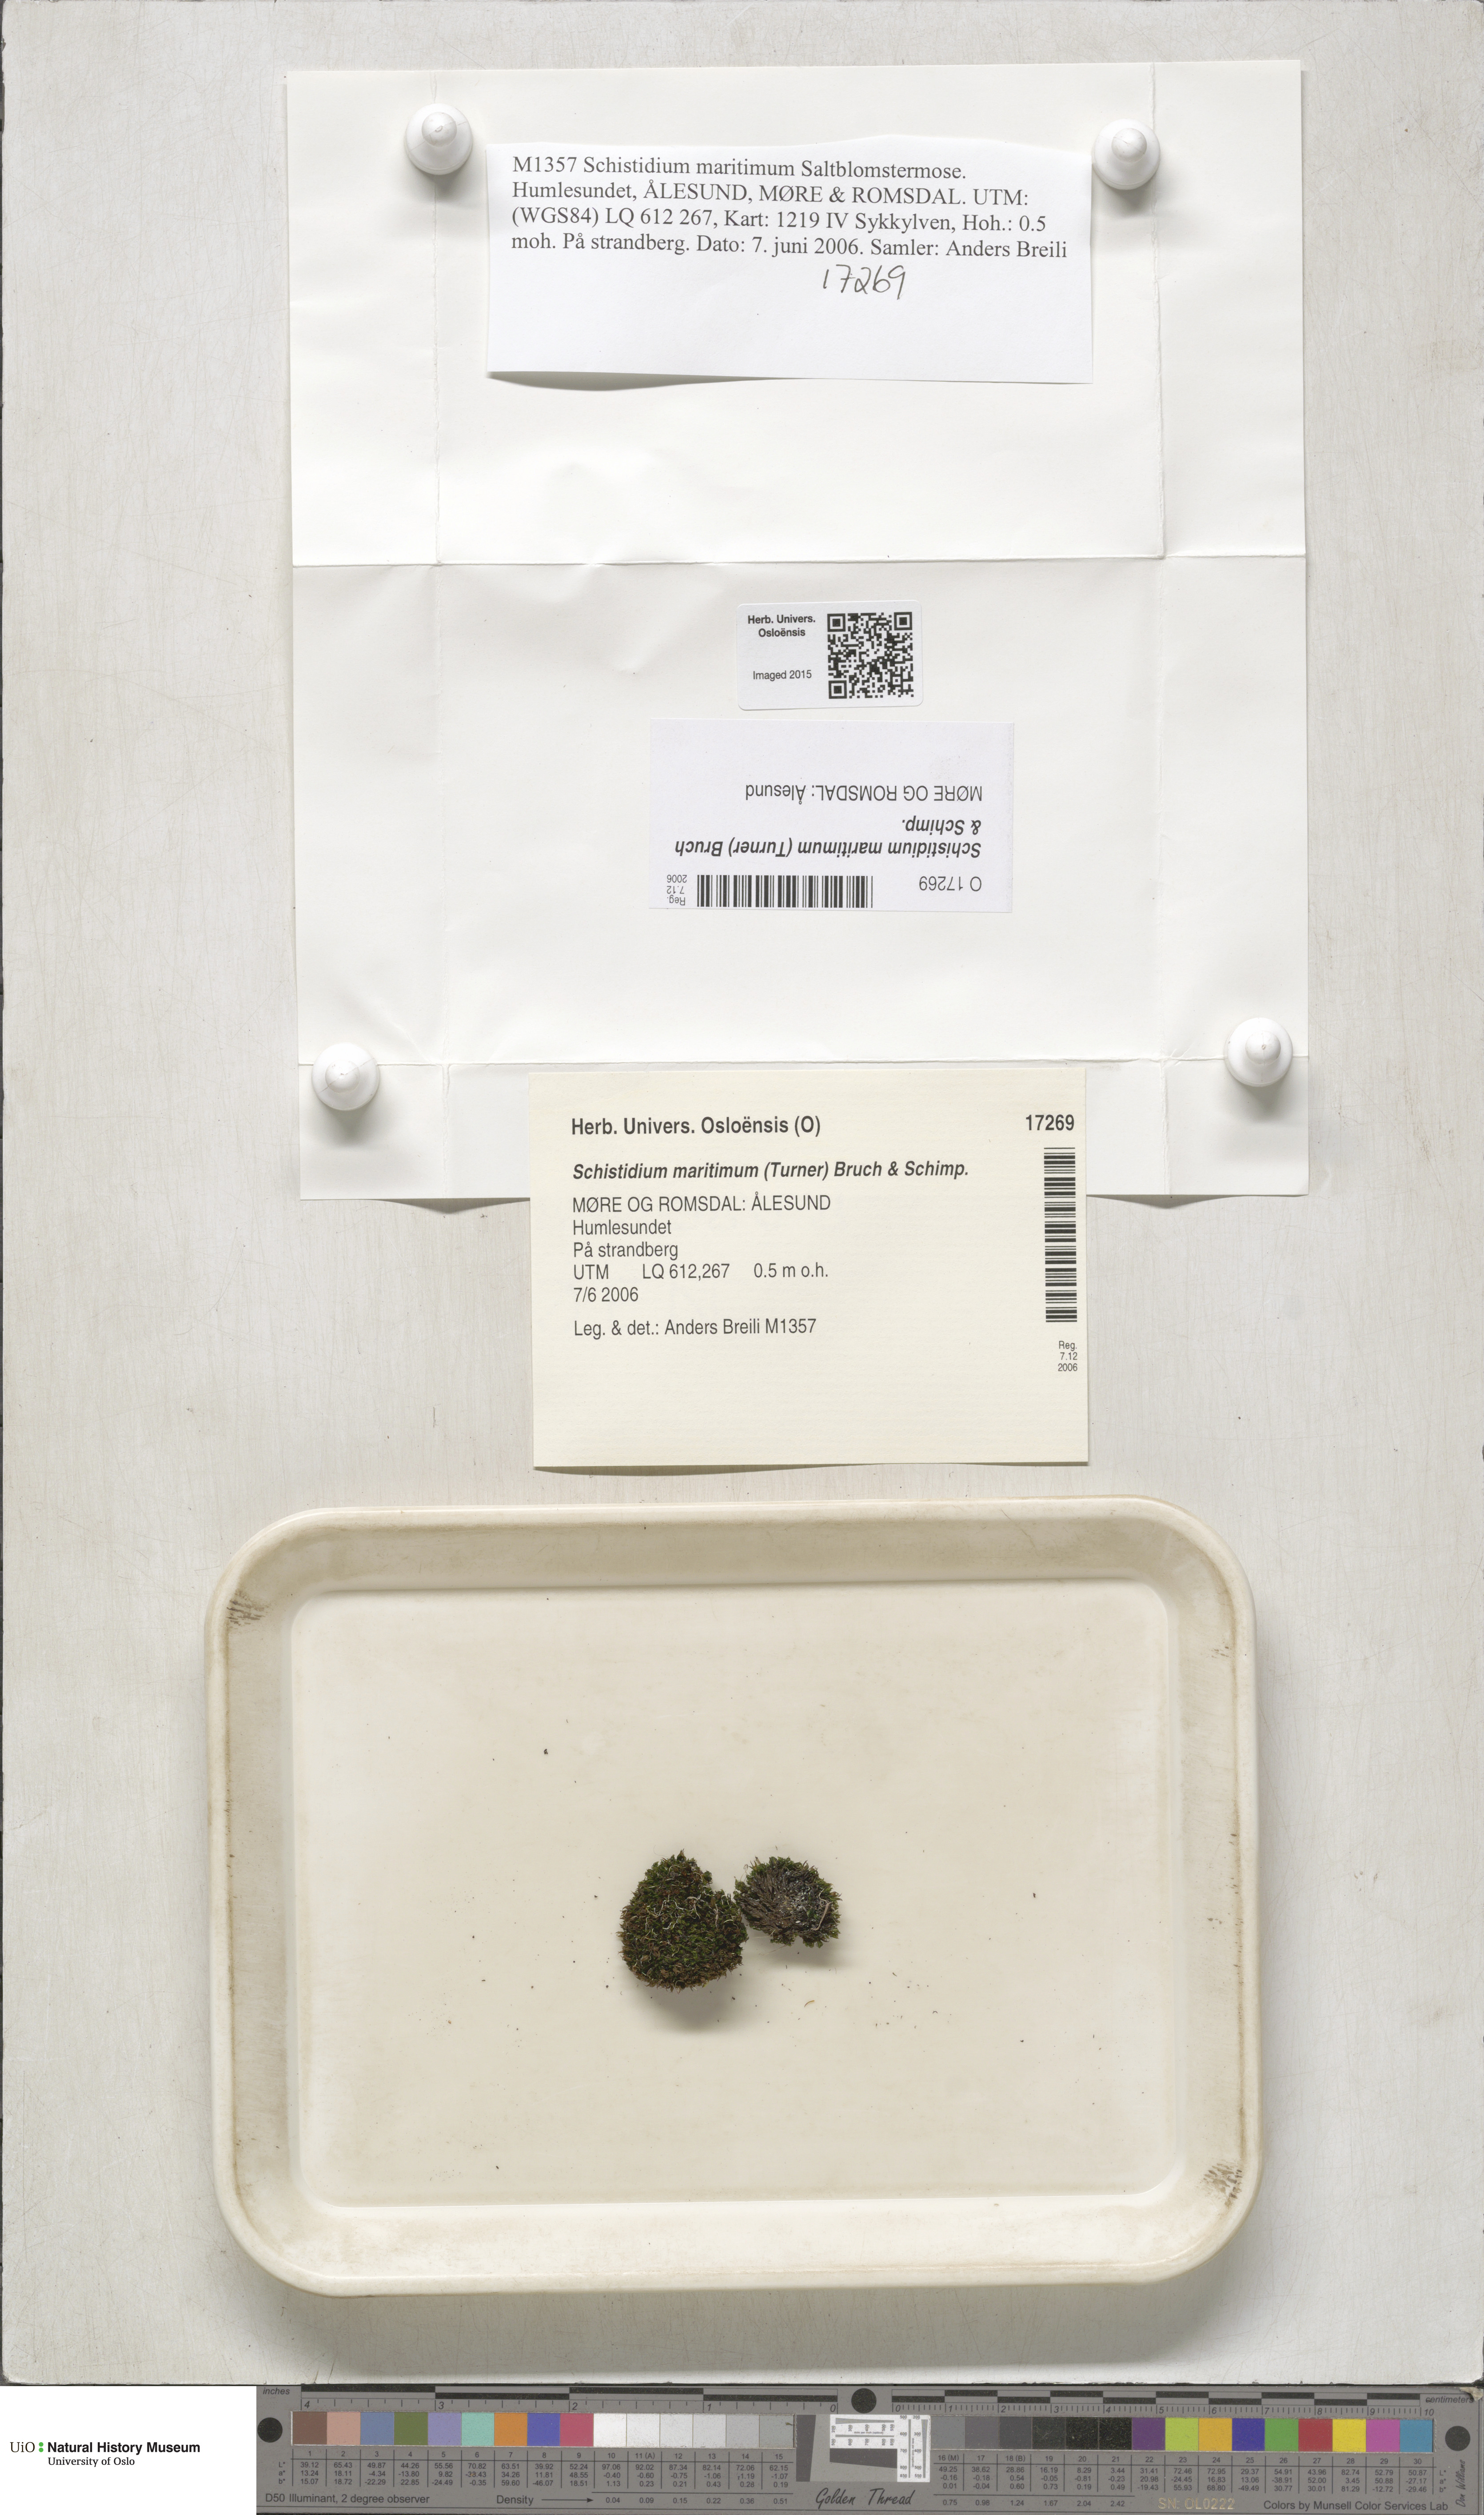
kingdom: Plantae
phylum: Bryophyta
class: Bryopsida
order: Grimmiales
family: Grimmiaceae
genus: Schistidium
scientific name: Schistidium maritimum
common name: Seaside bloom moss
